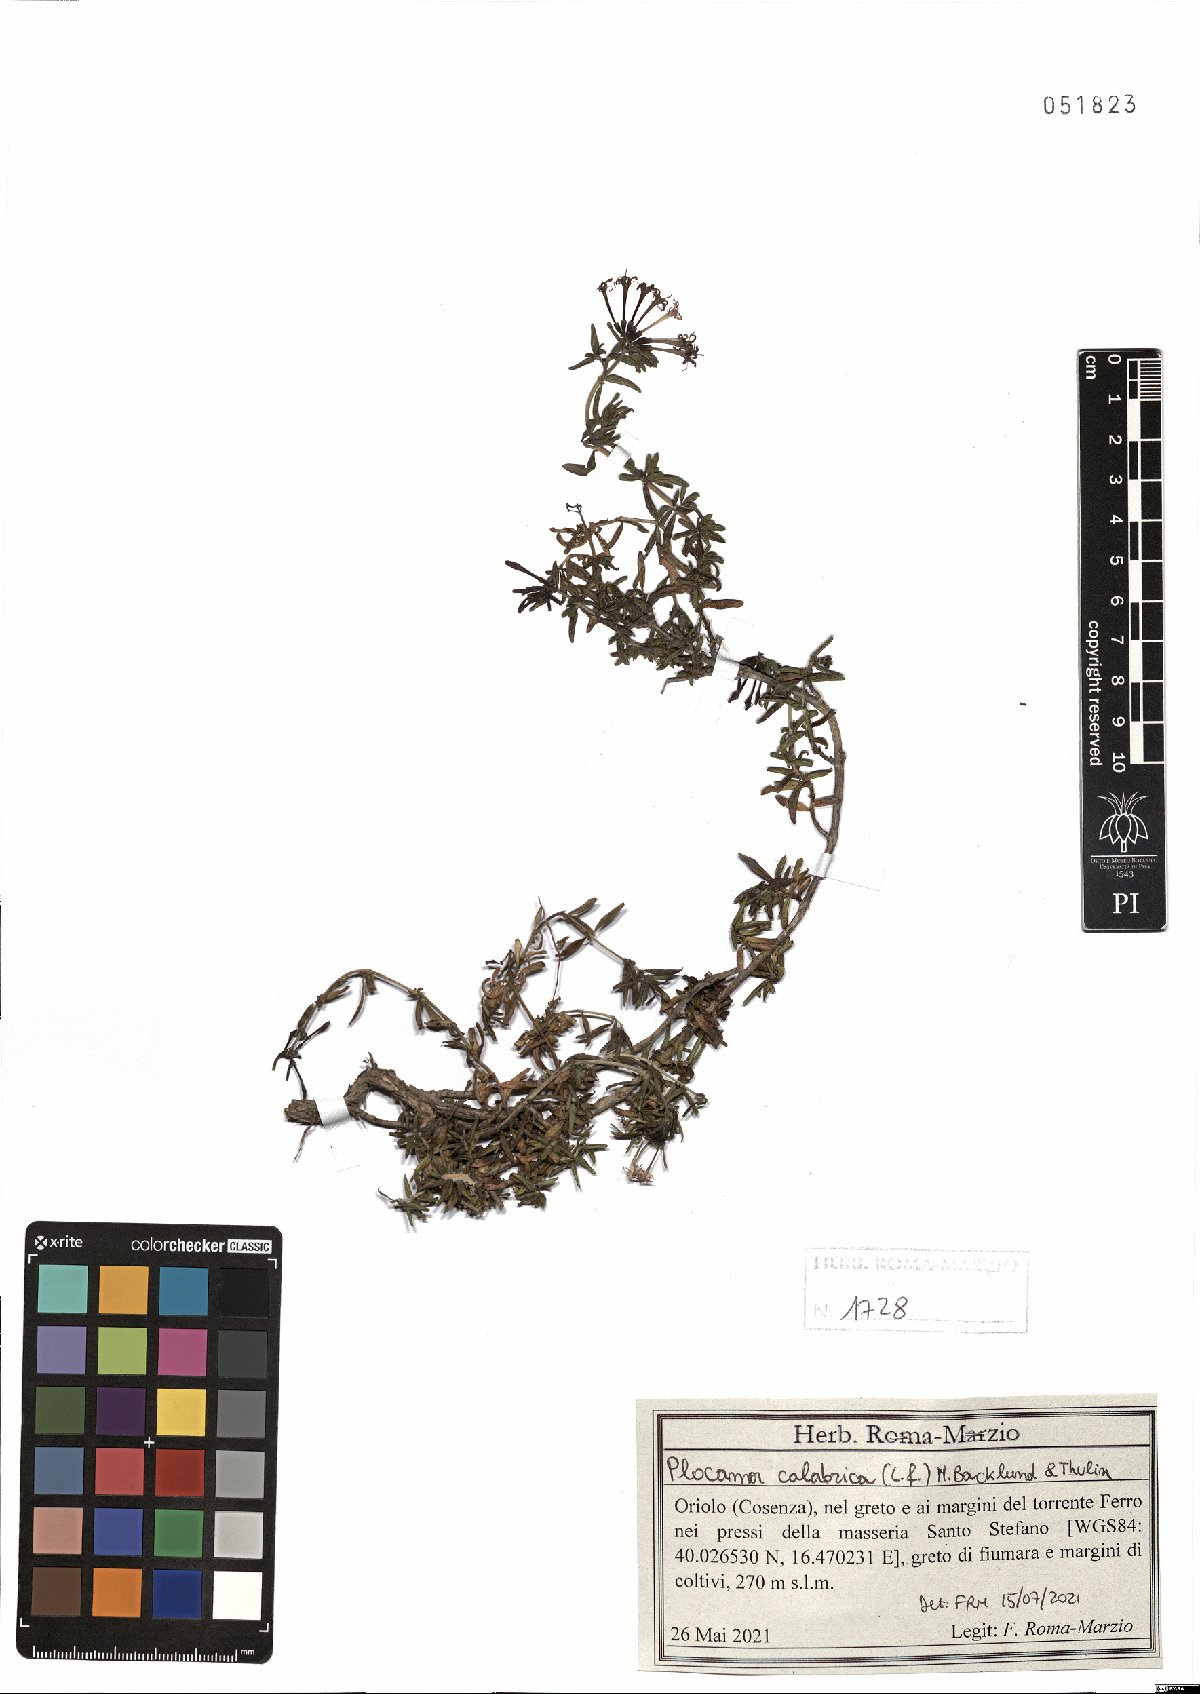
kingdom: Plantae
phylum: Tracheophyta
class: Magnoliopsida
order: Gentianales
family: Rubiaceae
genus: Plocama
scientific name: Plocama calabrica
